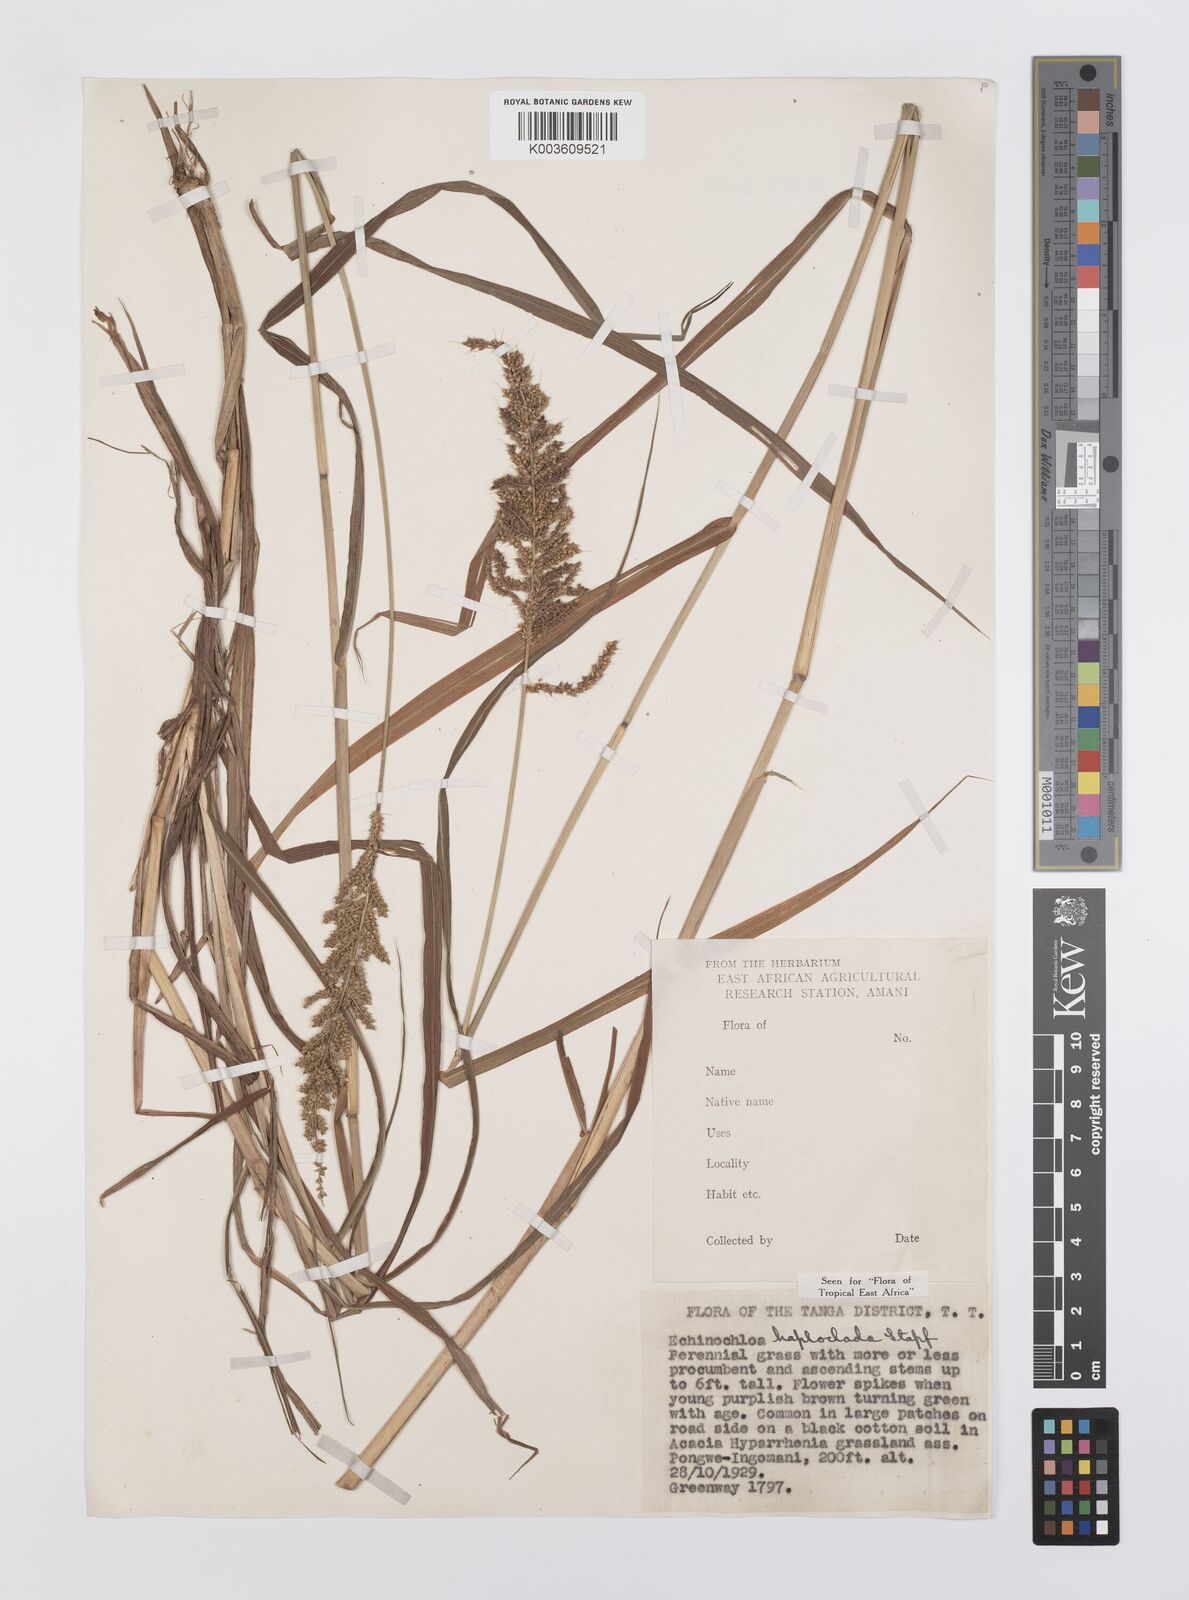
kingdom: Plantae
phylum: Tracheophyta
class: Liliopsida
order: Poales
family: Poaceae
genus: Echinochloa
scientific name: Echinochloa haploclada
